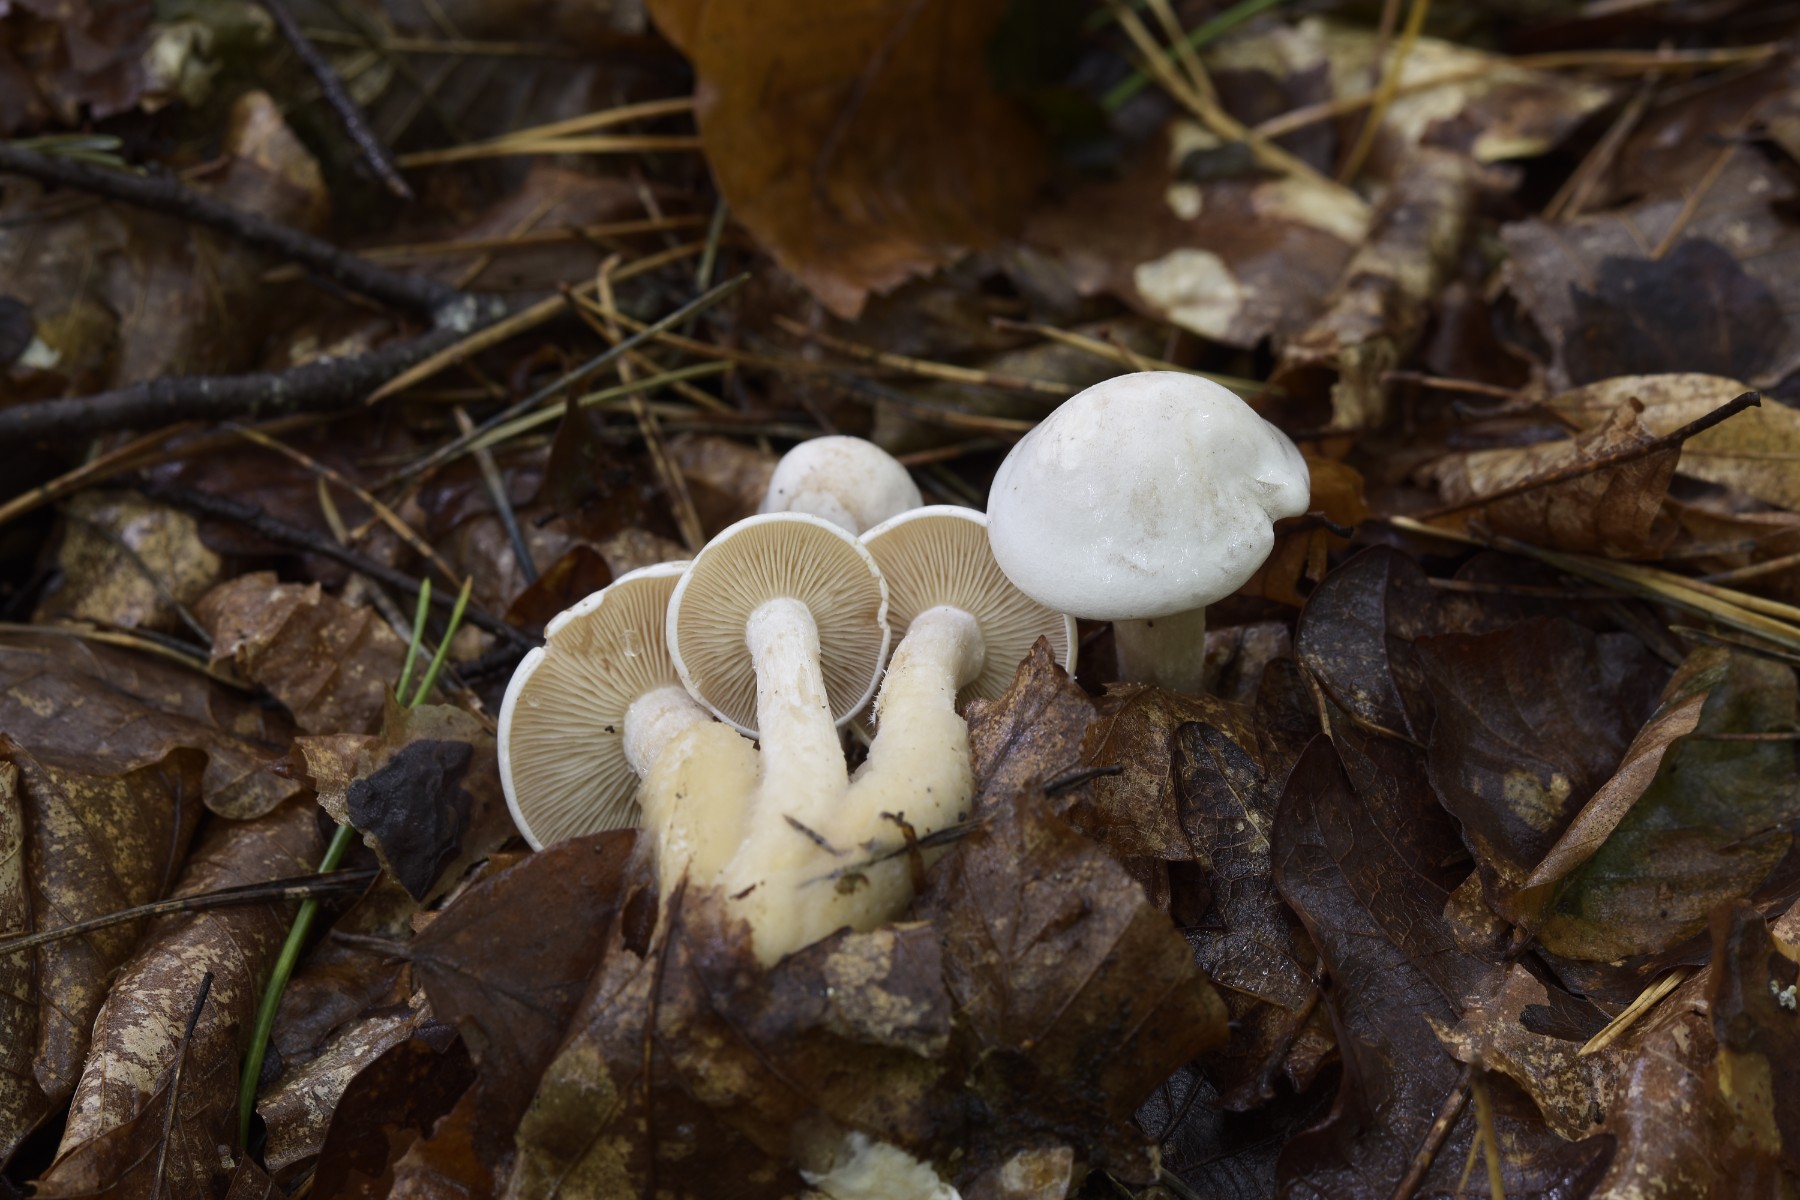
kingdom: Fungi
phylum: Basidiomycota
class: Agaricomycetes
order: Agaricales
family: Tricholomataceae
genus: Clitocybe
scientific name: Clitocybe phyllophila
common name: løv-tragthat
